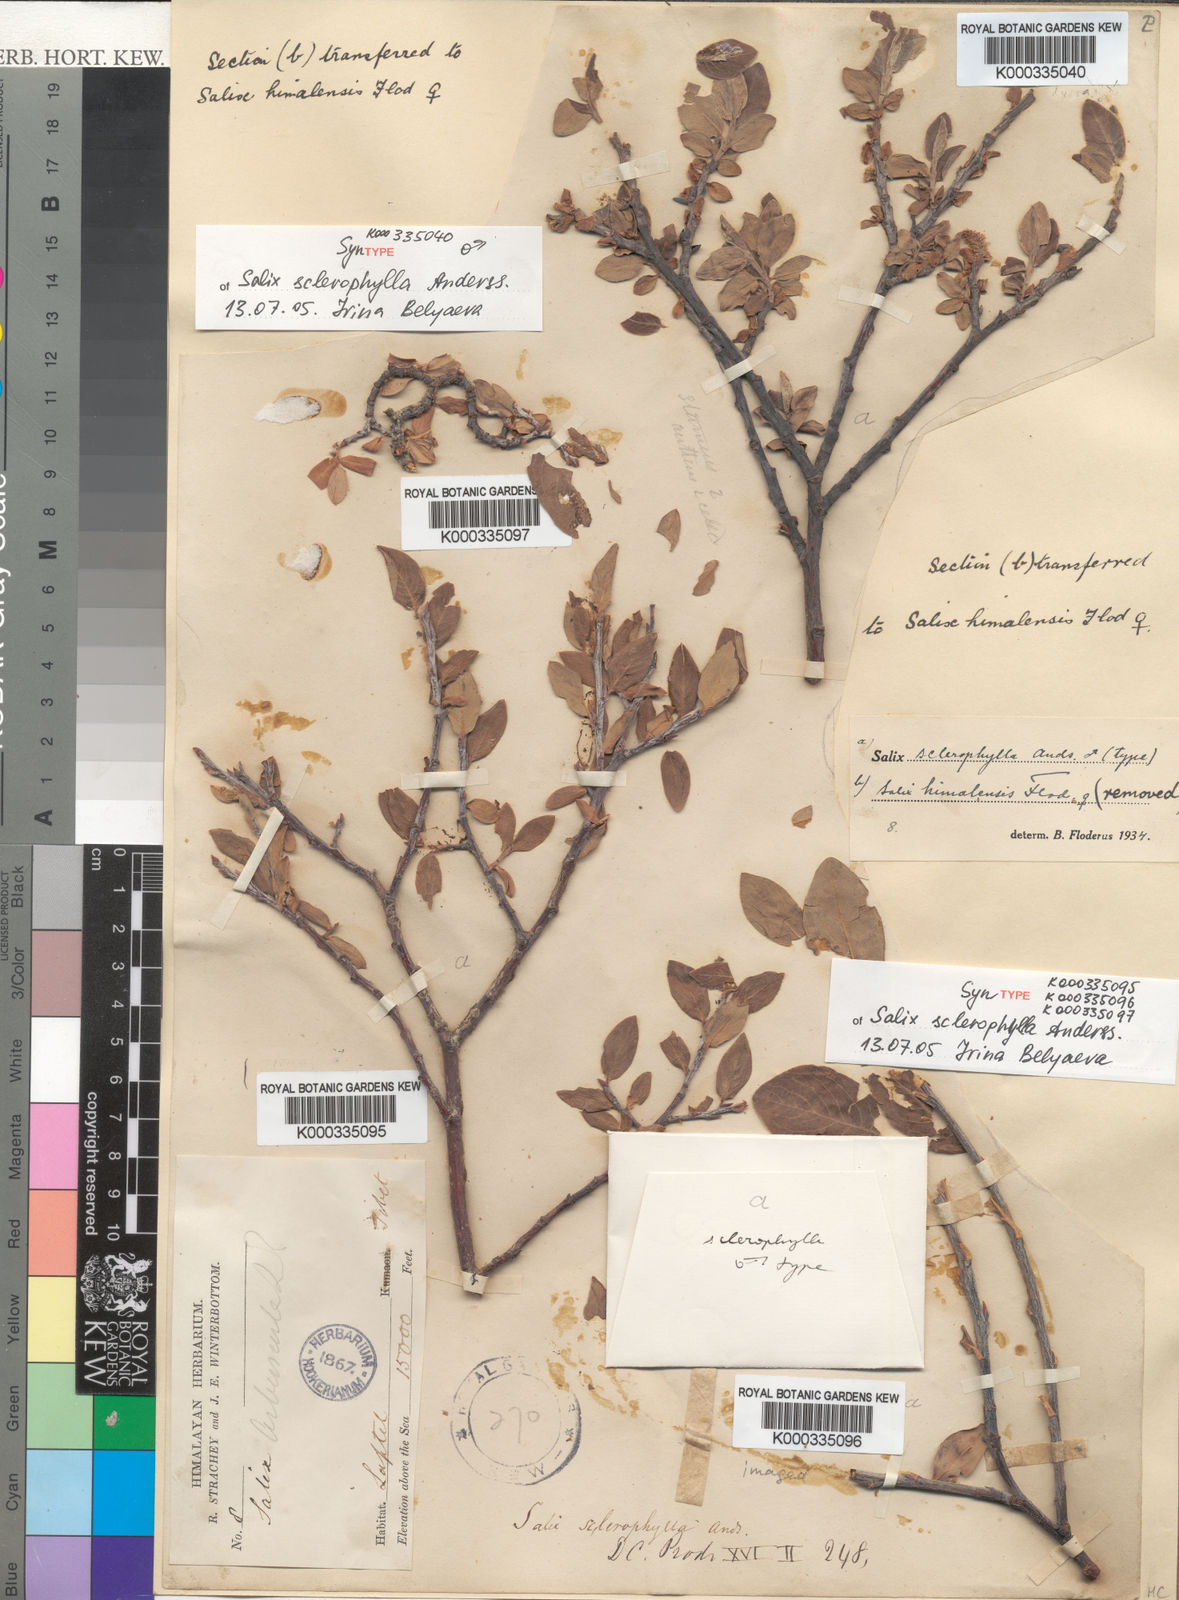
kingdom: Plantae
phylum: Tracheophyta
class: Magnoliopsida
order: Malpighiales
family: Salicaceae
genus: Salix
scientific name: Salix sclerophylla
